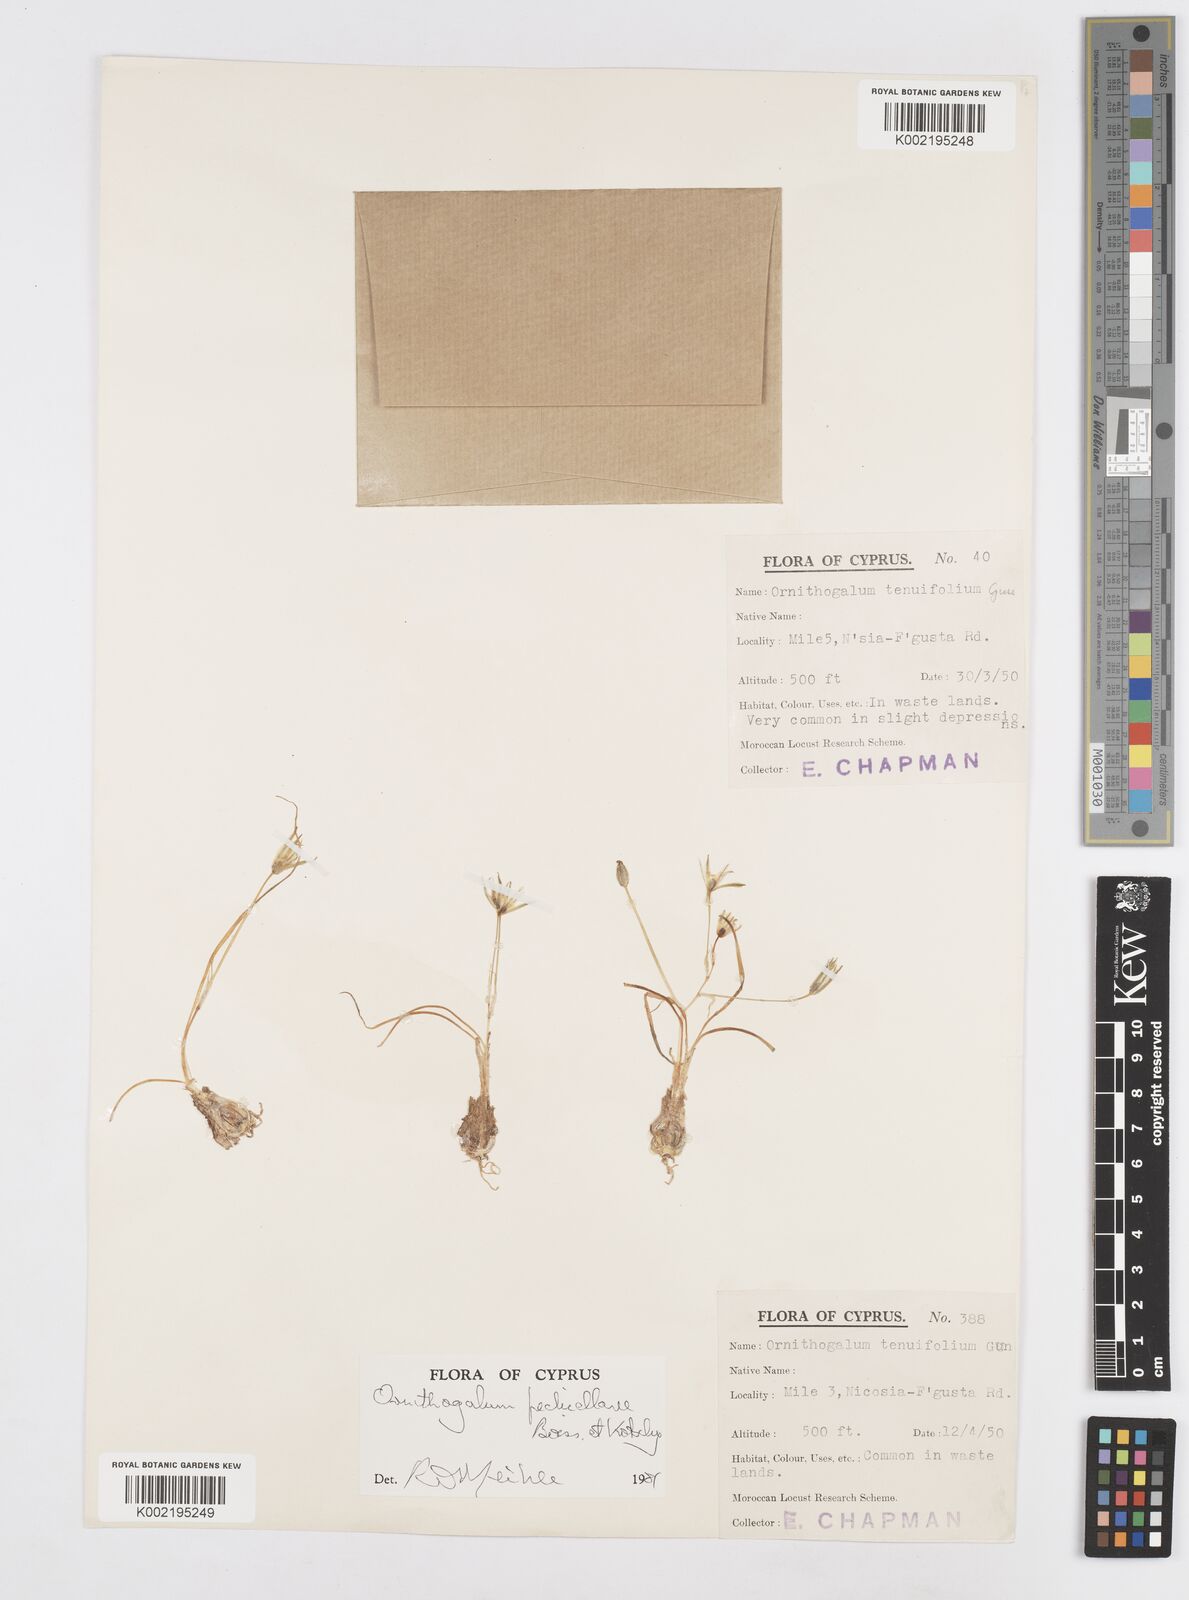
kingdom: Plantae
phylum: Tracheophyta
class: Liliopsida
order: Asparagales
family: Asparagaceae
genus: Ornithogalum
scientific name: Ornithogalum pedicellare
